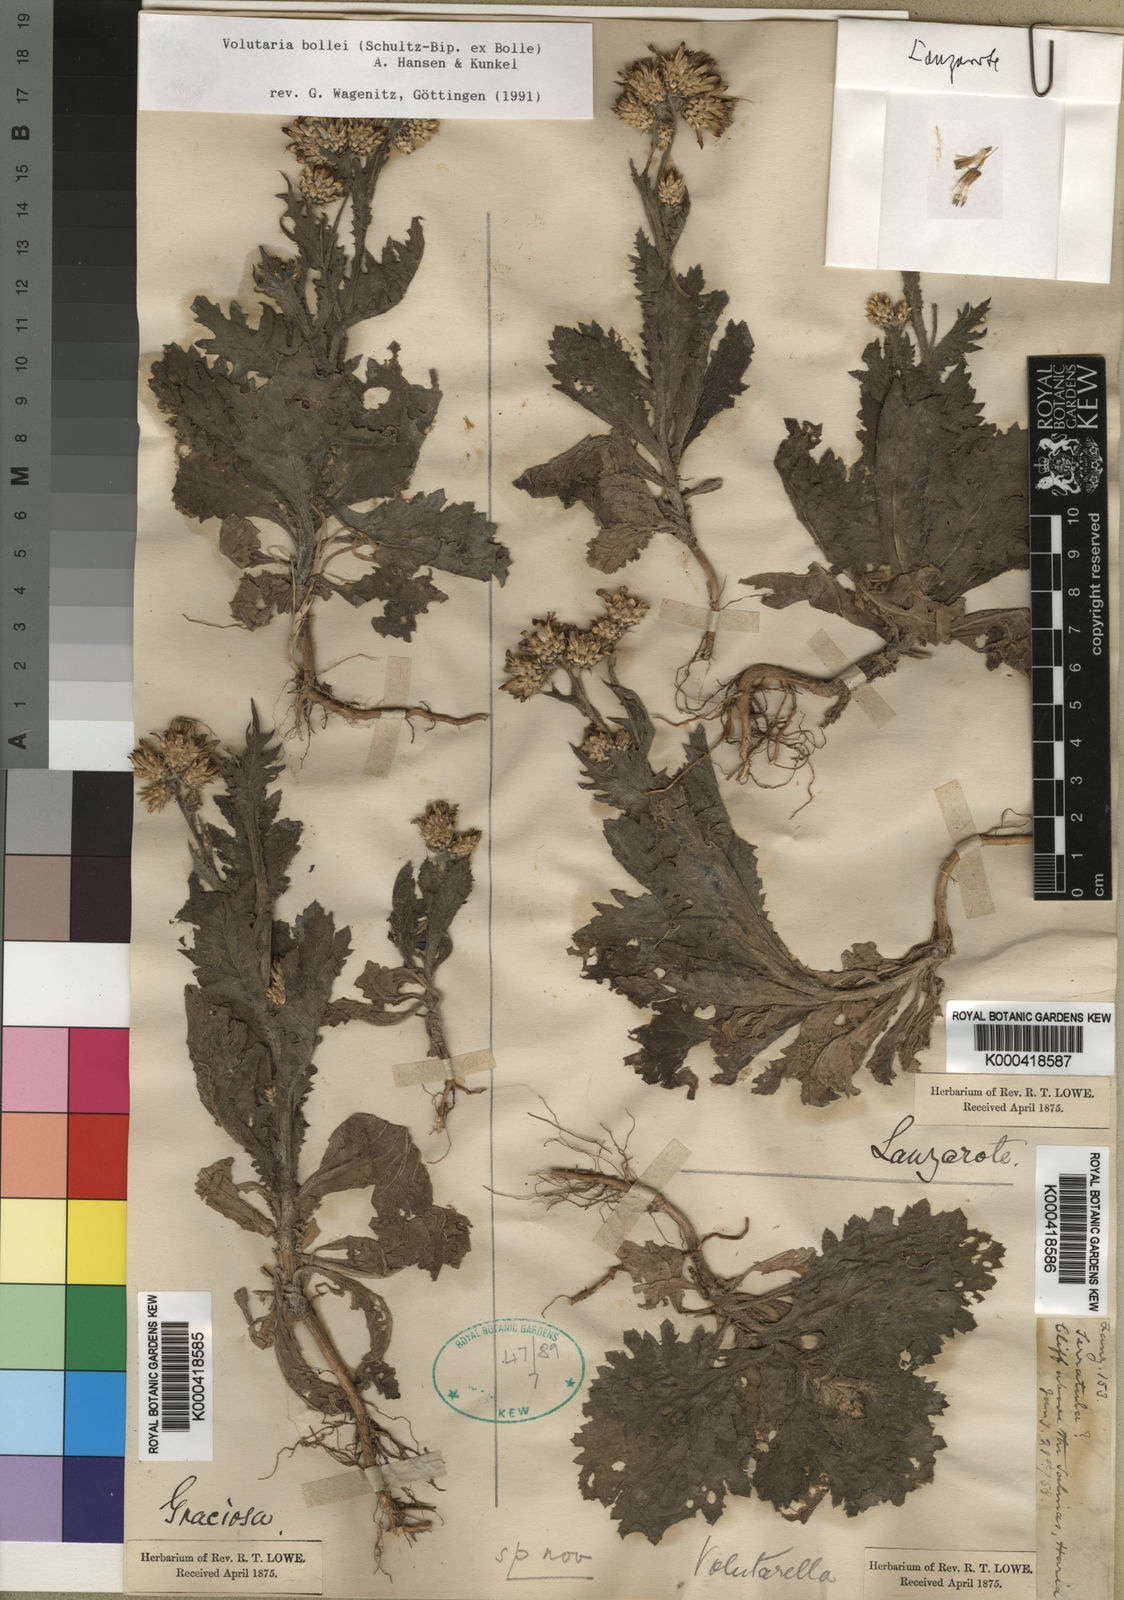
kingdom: Plantae
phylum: Tracheophyta
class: Magnoliopsida
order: Asterales
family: Asteraceae
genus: Volutaria
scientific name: Volutaria bollei
